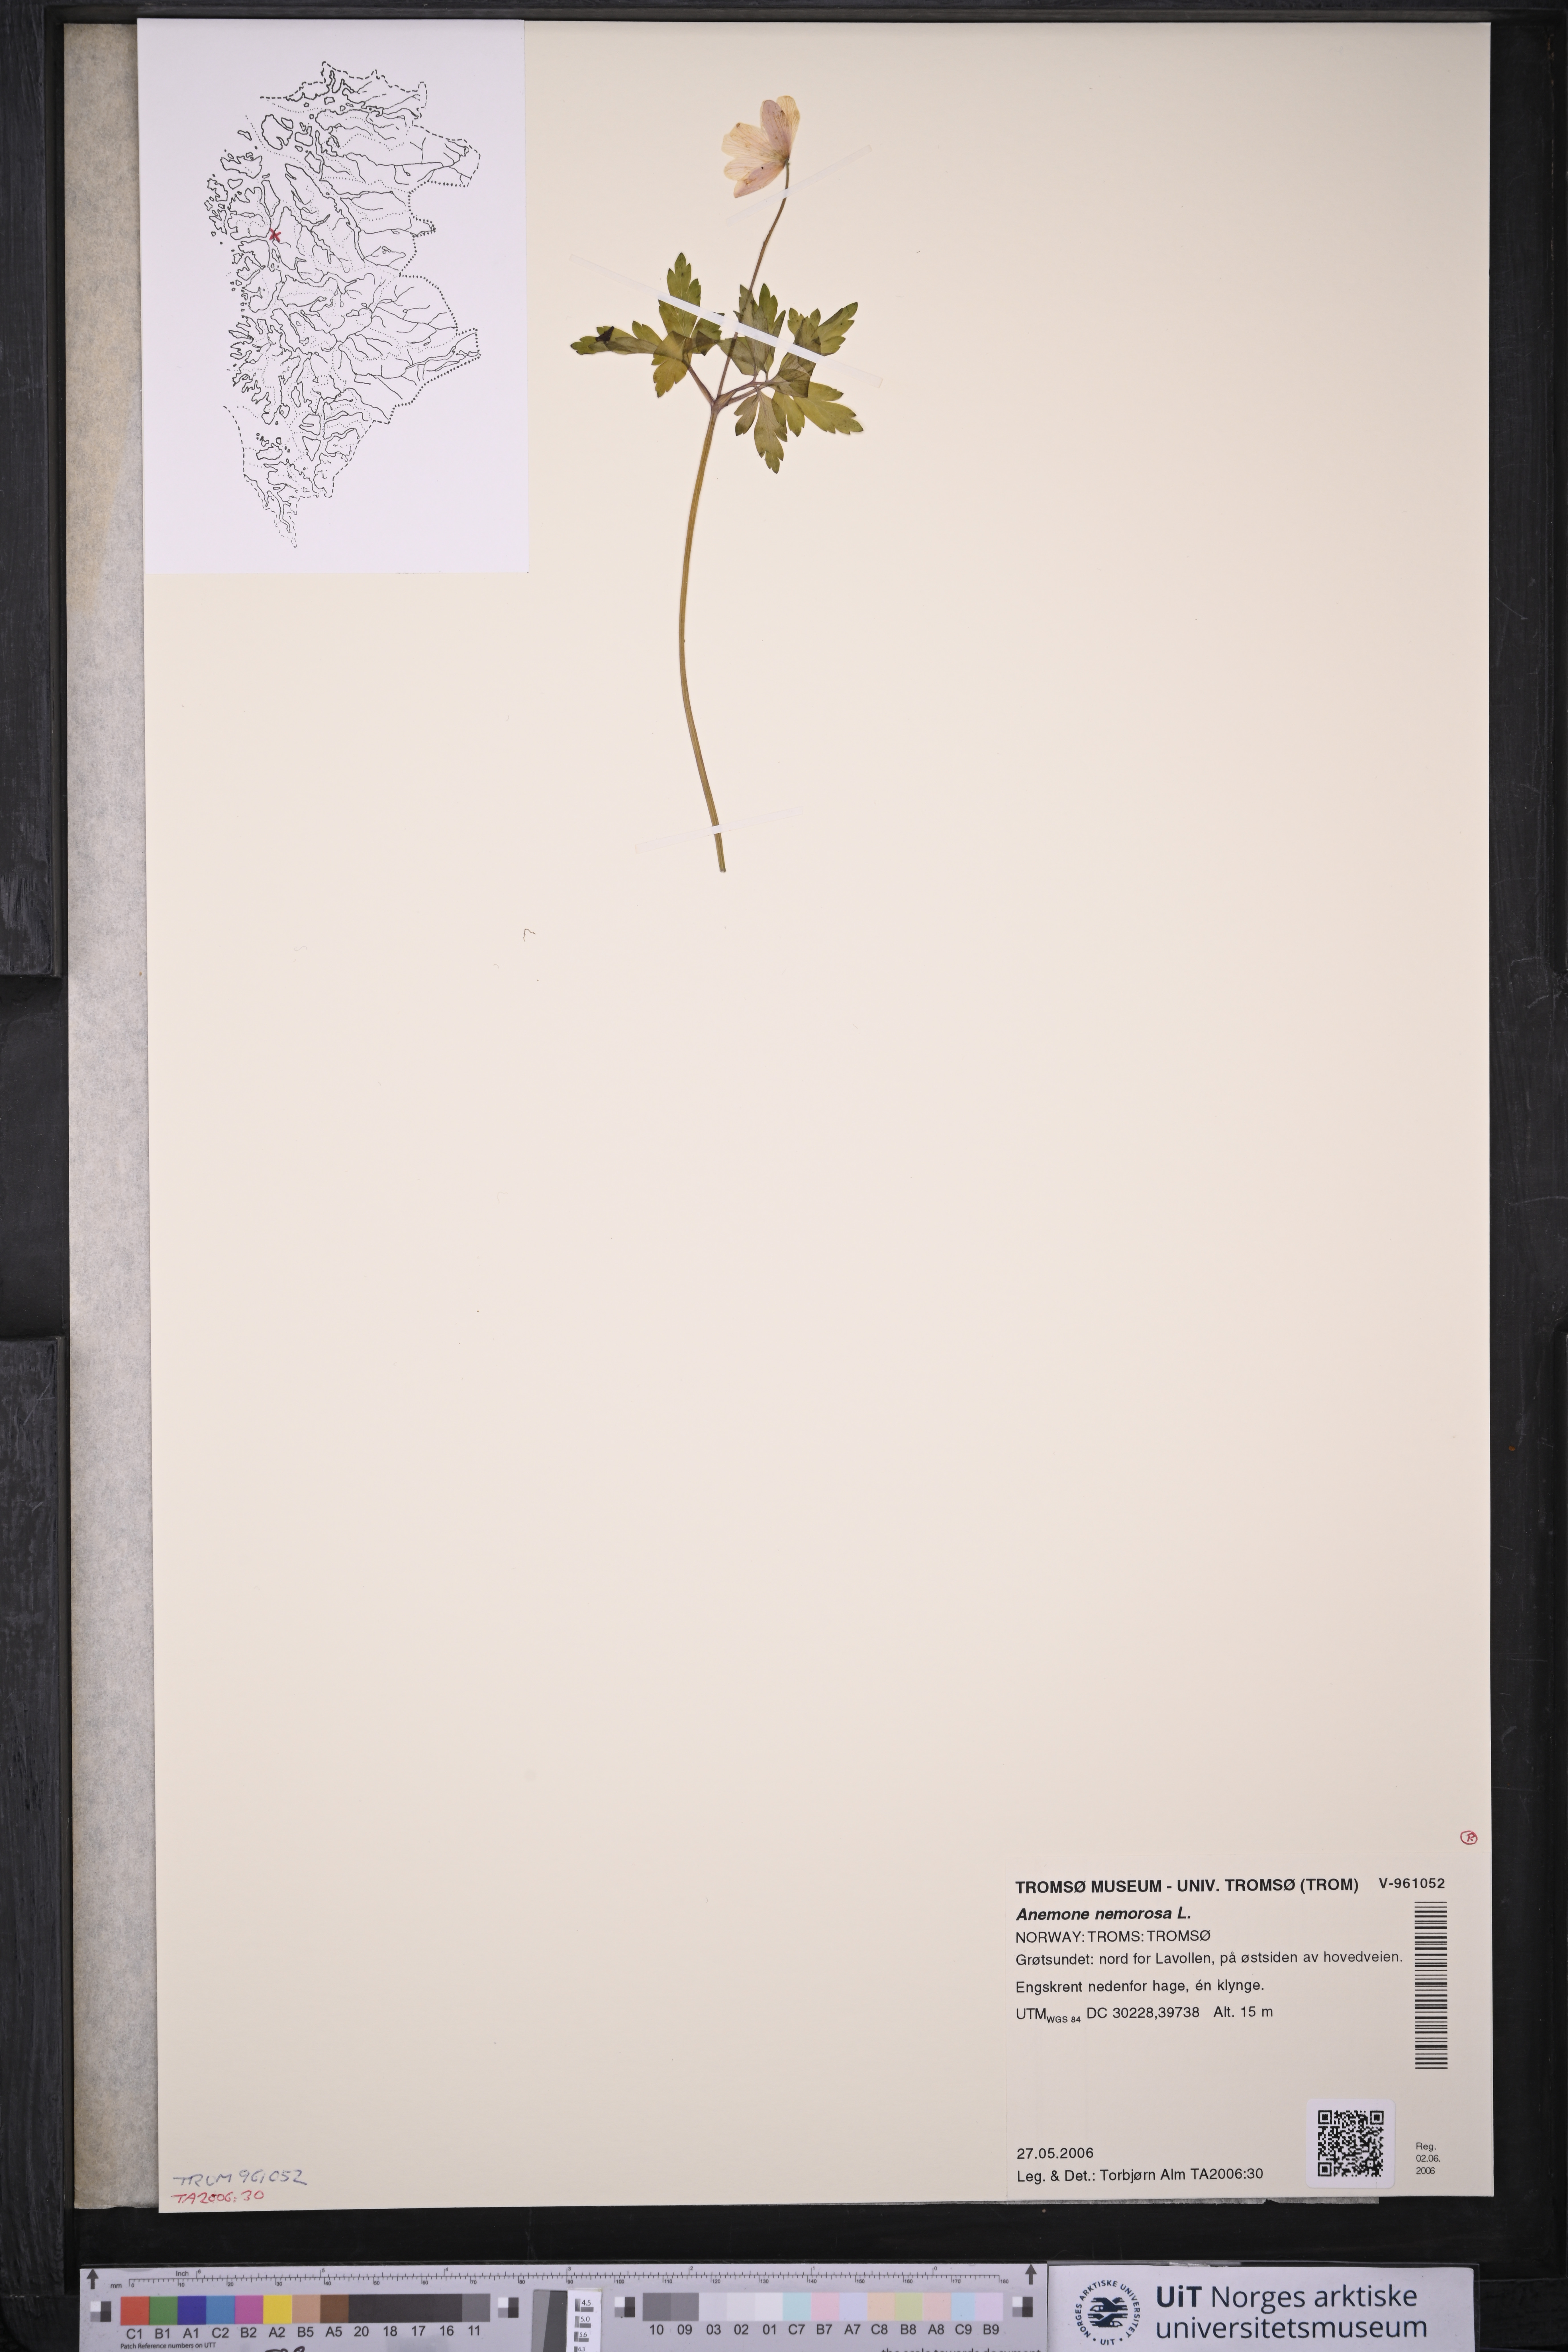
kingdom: Plantae
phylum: Tracheophyta
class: Magnoliopsida
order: Ranunculales
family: Ranunculaceae
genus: Anemone
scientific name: Anemone nemorosa
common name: Wood anemone
